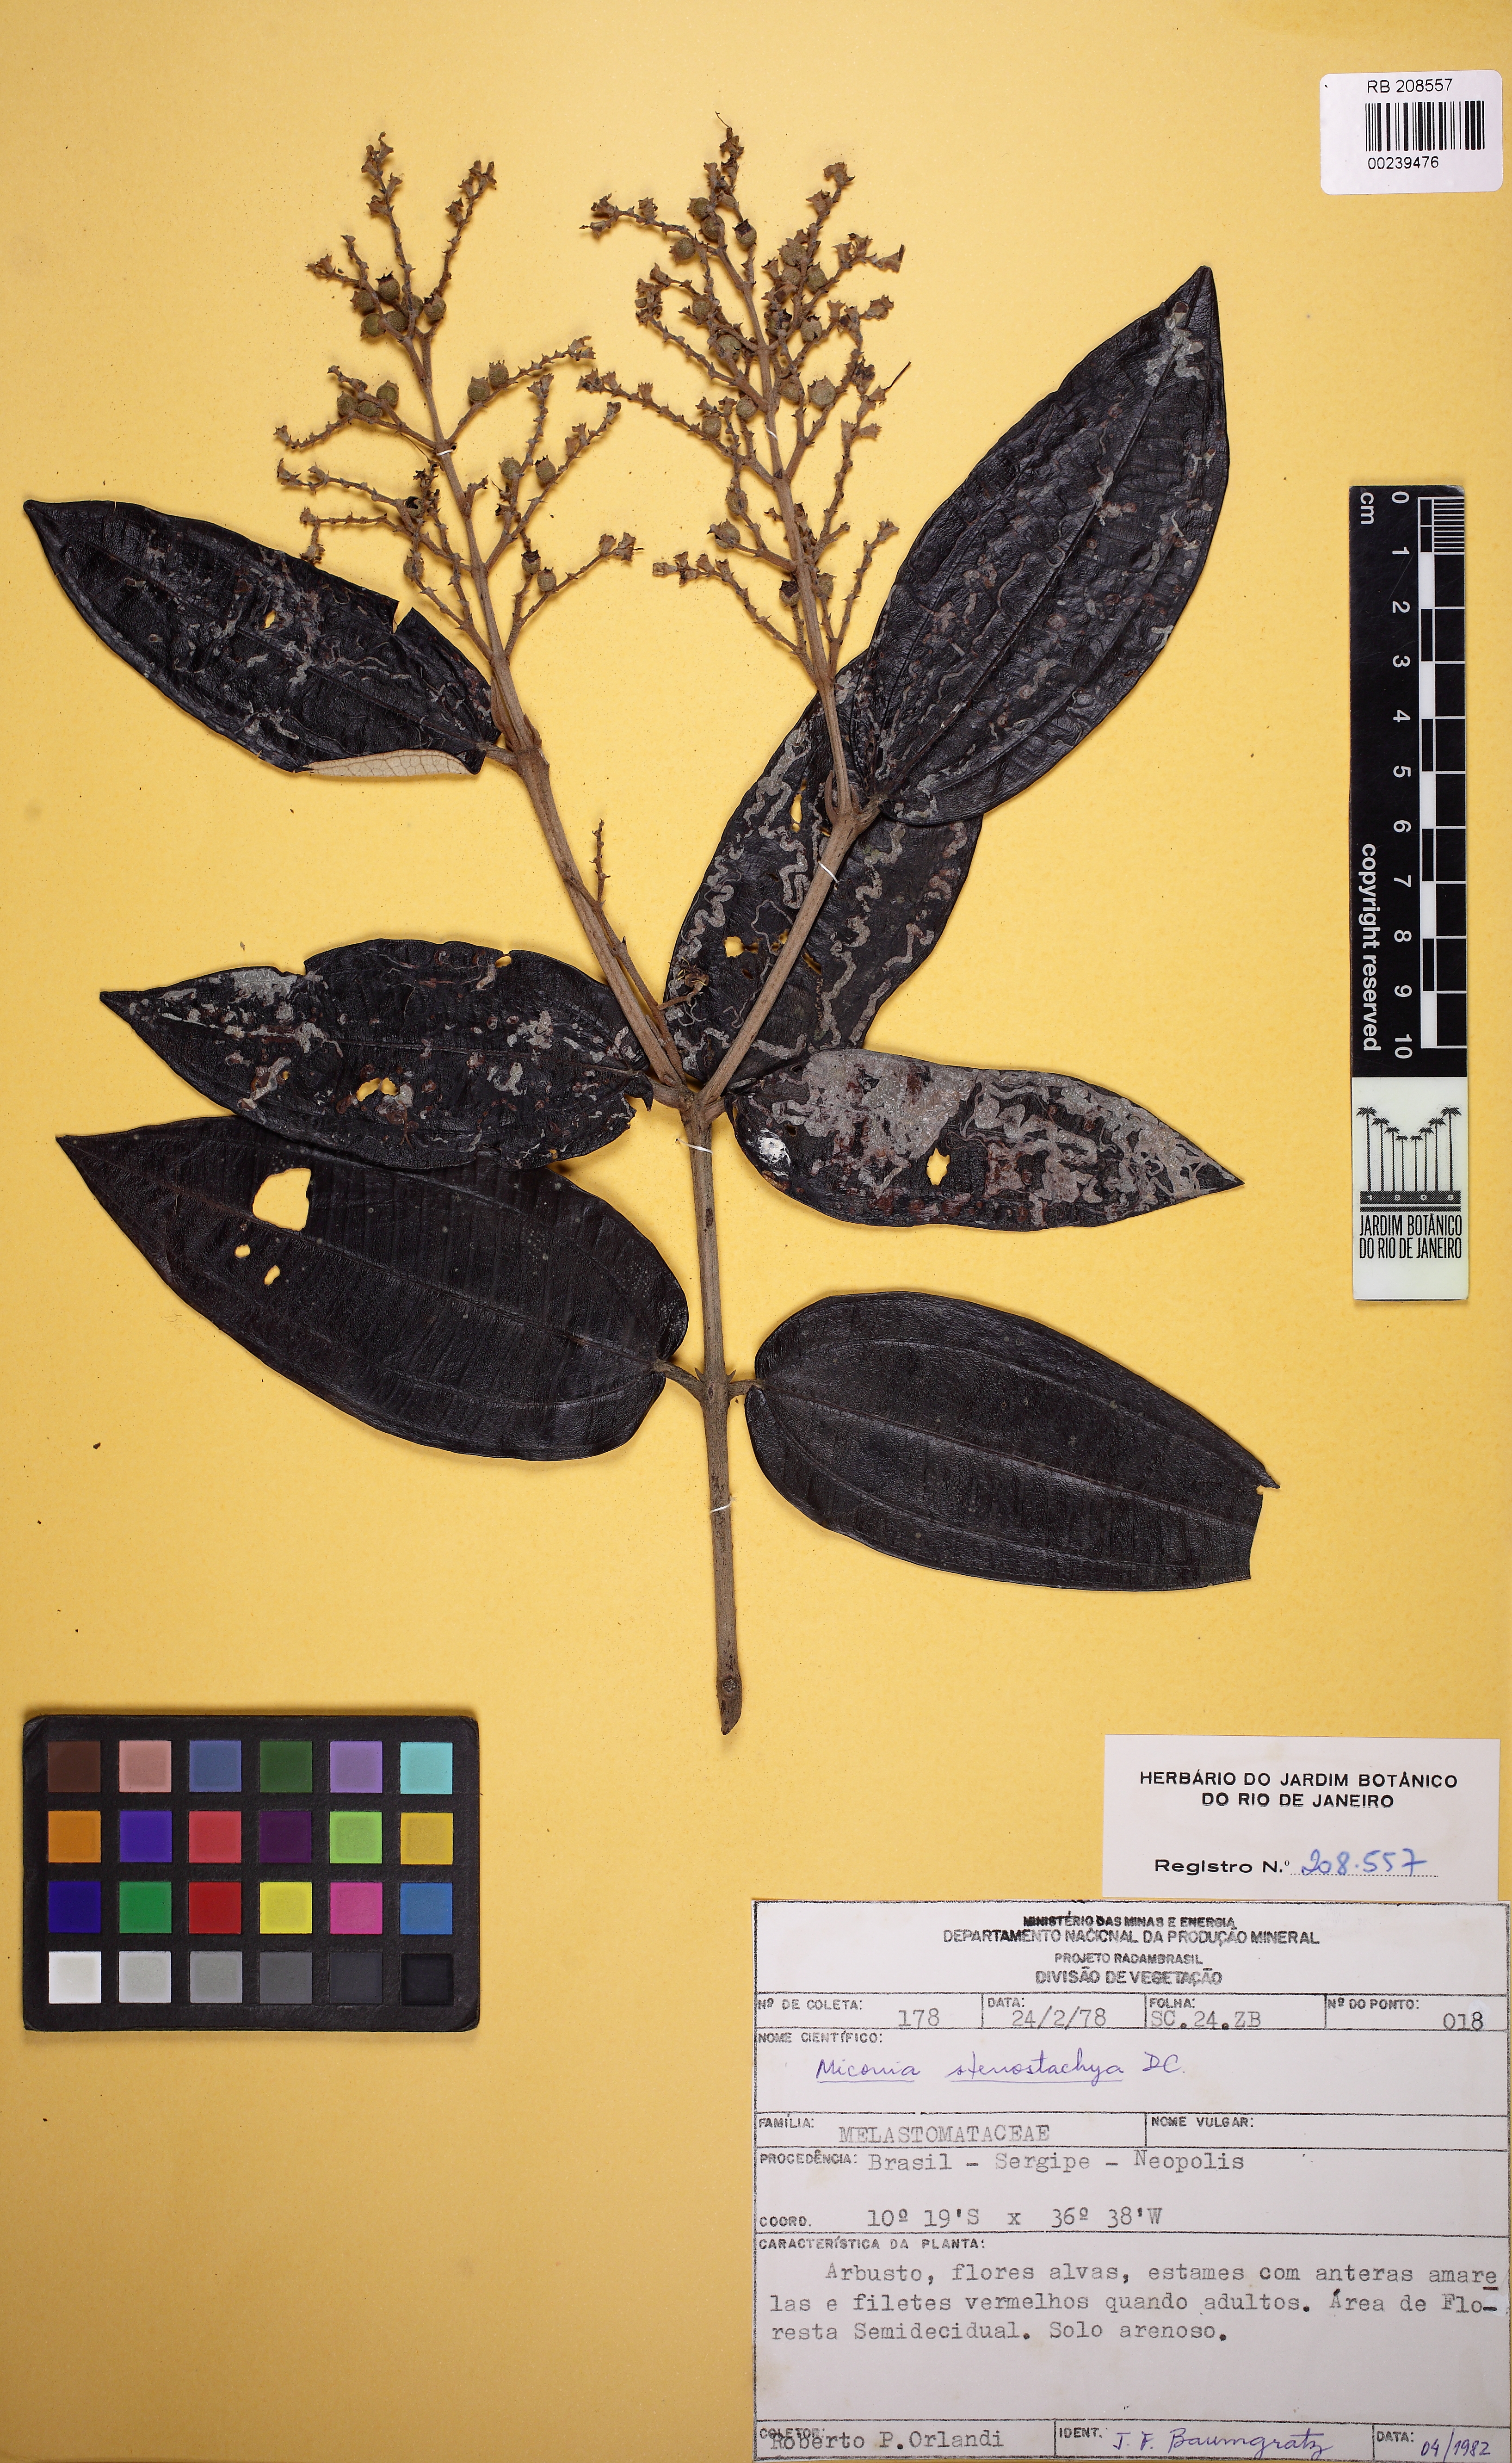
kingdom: Plantae
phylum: Tracheophyta
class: Magnoliopsida
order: Myrtales
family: Melastomataceae
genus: Miconia
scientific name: Miconia stenostachya
